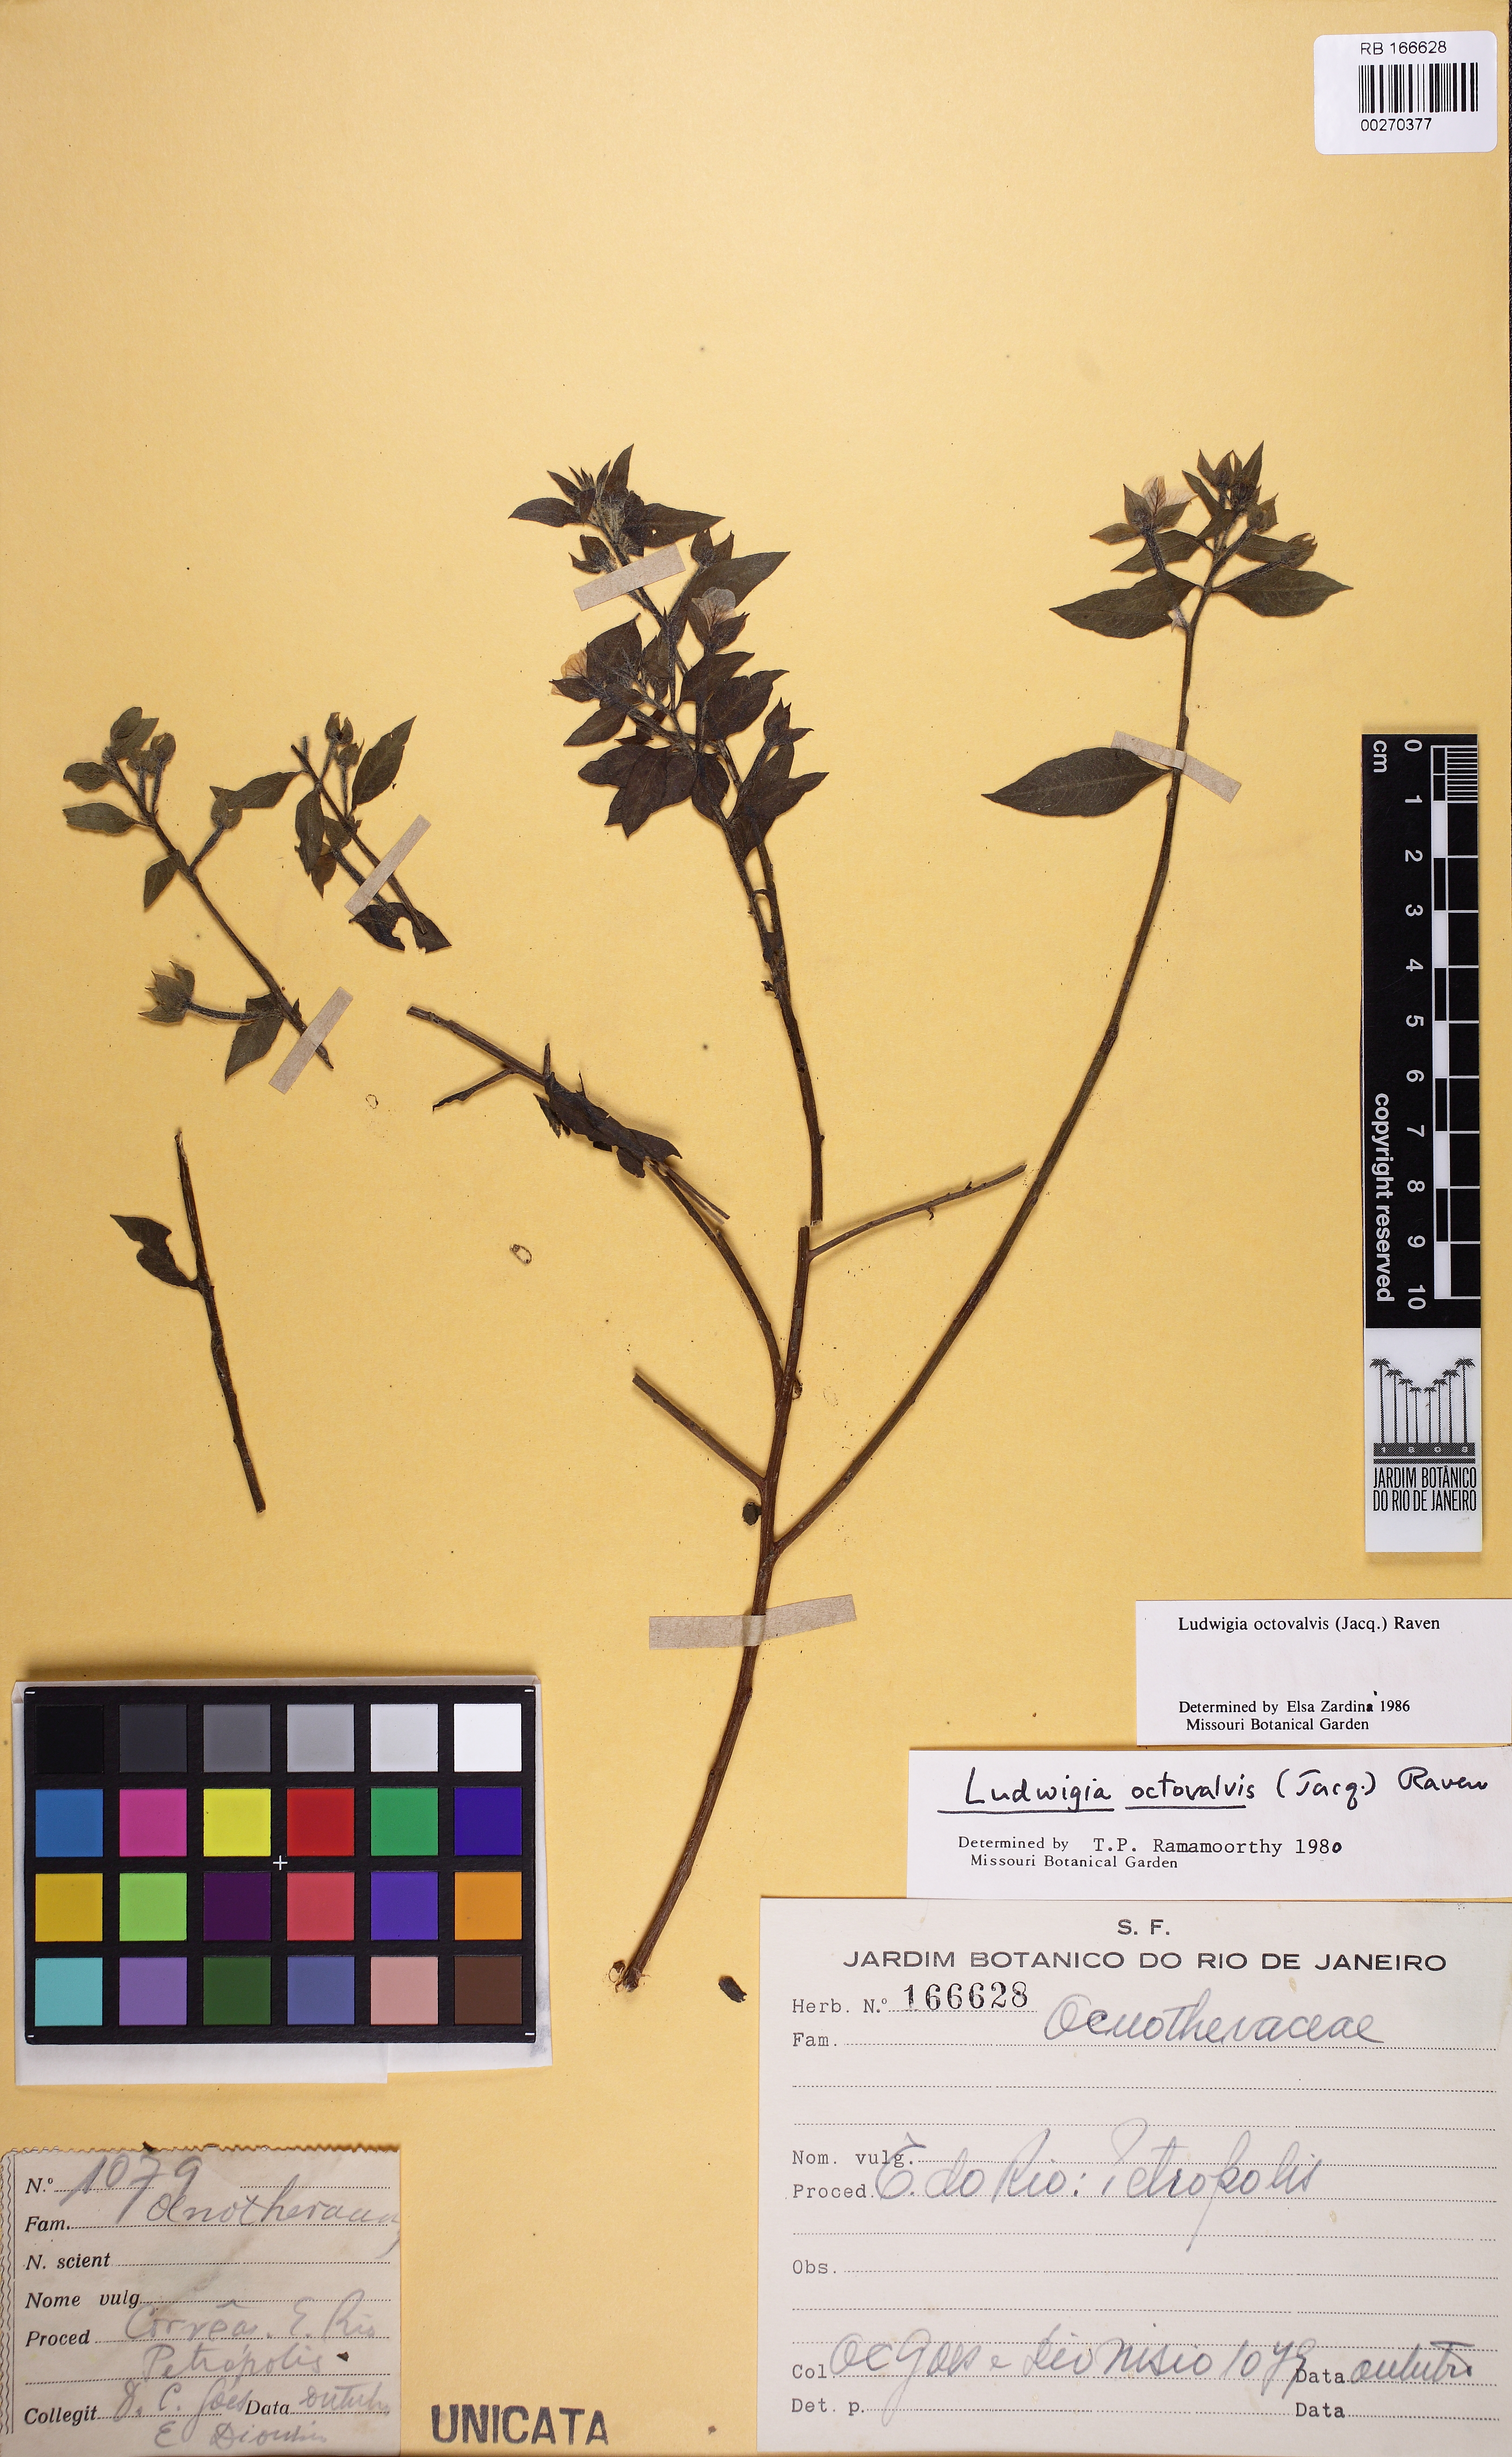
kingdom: Plantae
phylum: Tracheophyta
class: Magnoliopsida
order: Myrtales
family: Onagraceae
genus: Ludwigia
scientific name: Ludwigia octovalvis
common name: Water-primrose
